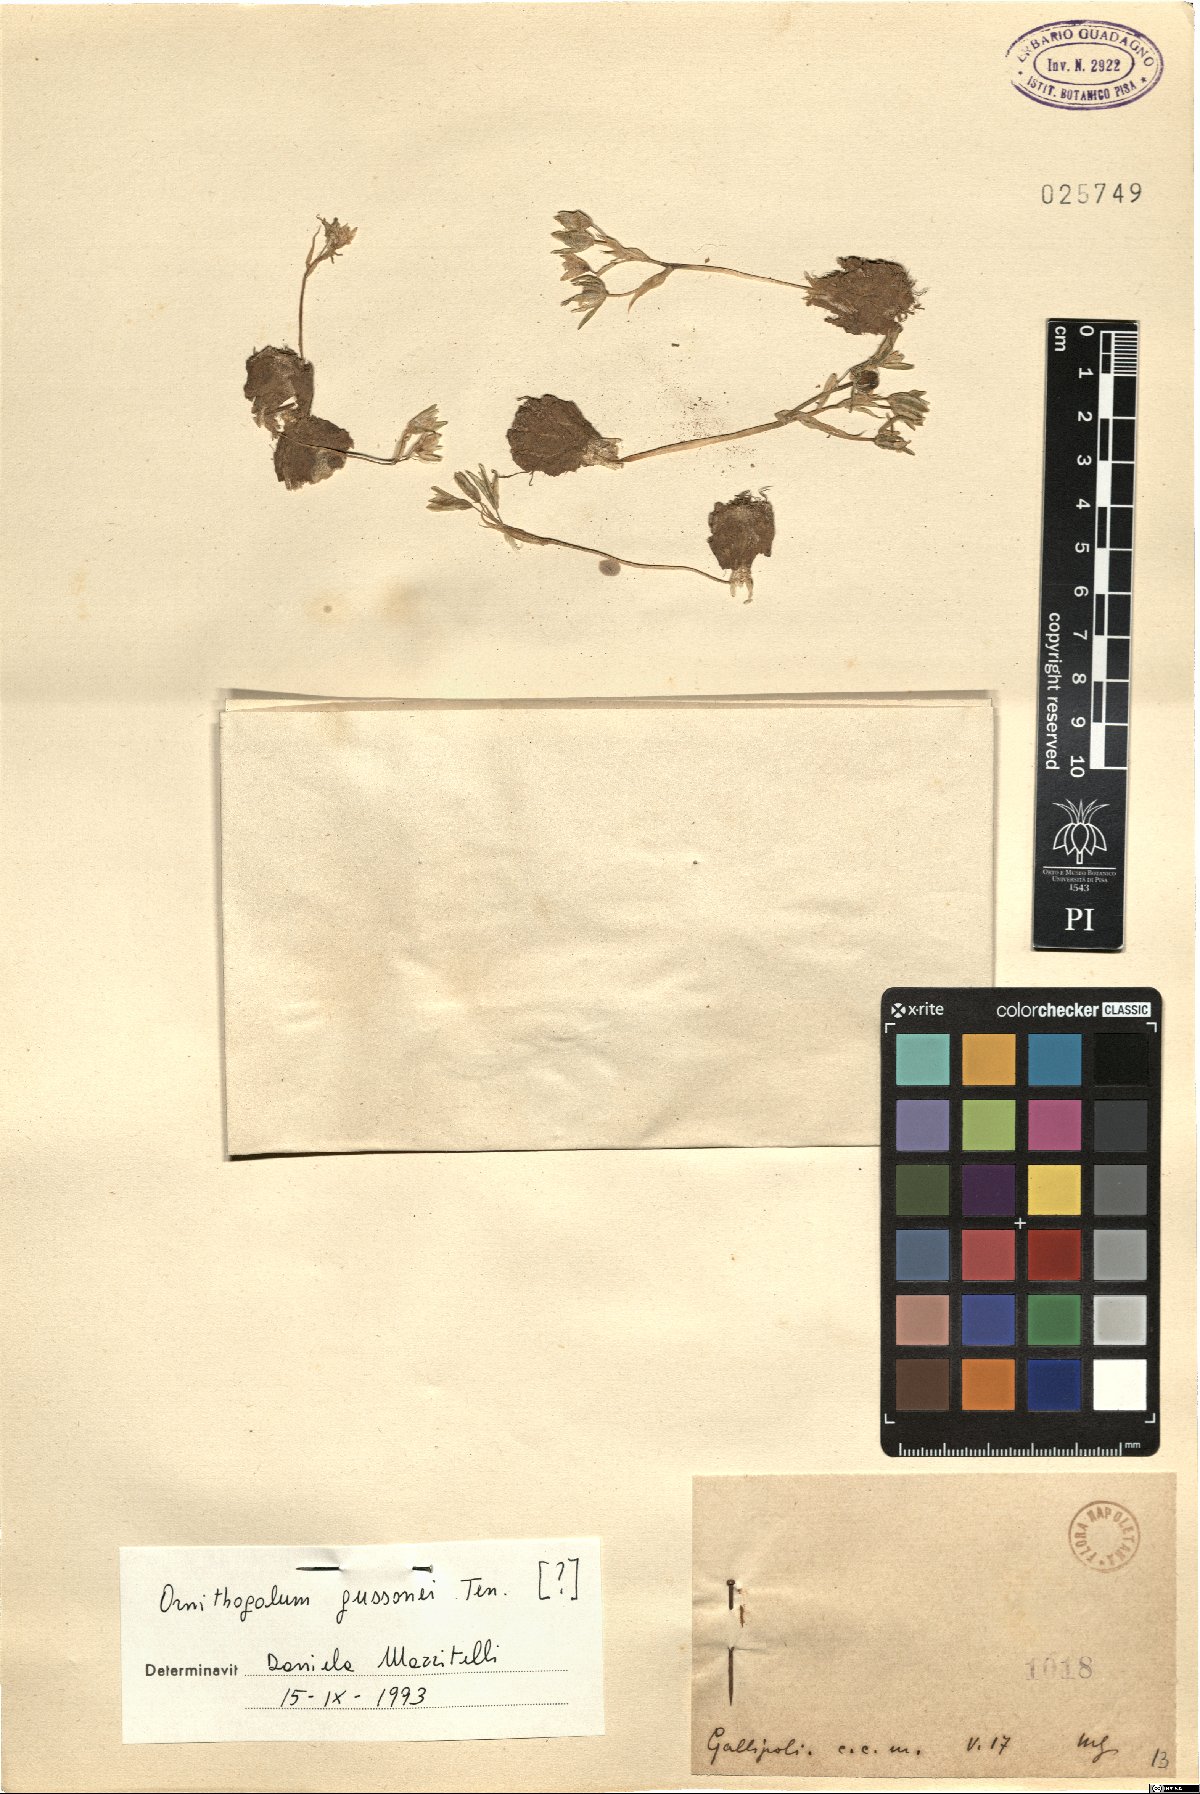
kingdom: Plantae
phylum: Tracheophyta
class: Liliopsida
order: Asparagales
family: Asparagaceae
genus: Ornithogalum
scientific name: Ornithogalum gussonei
